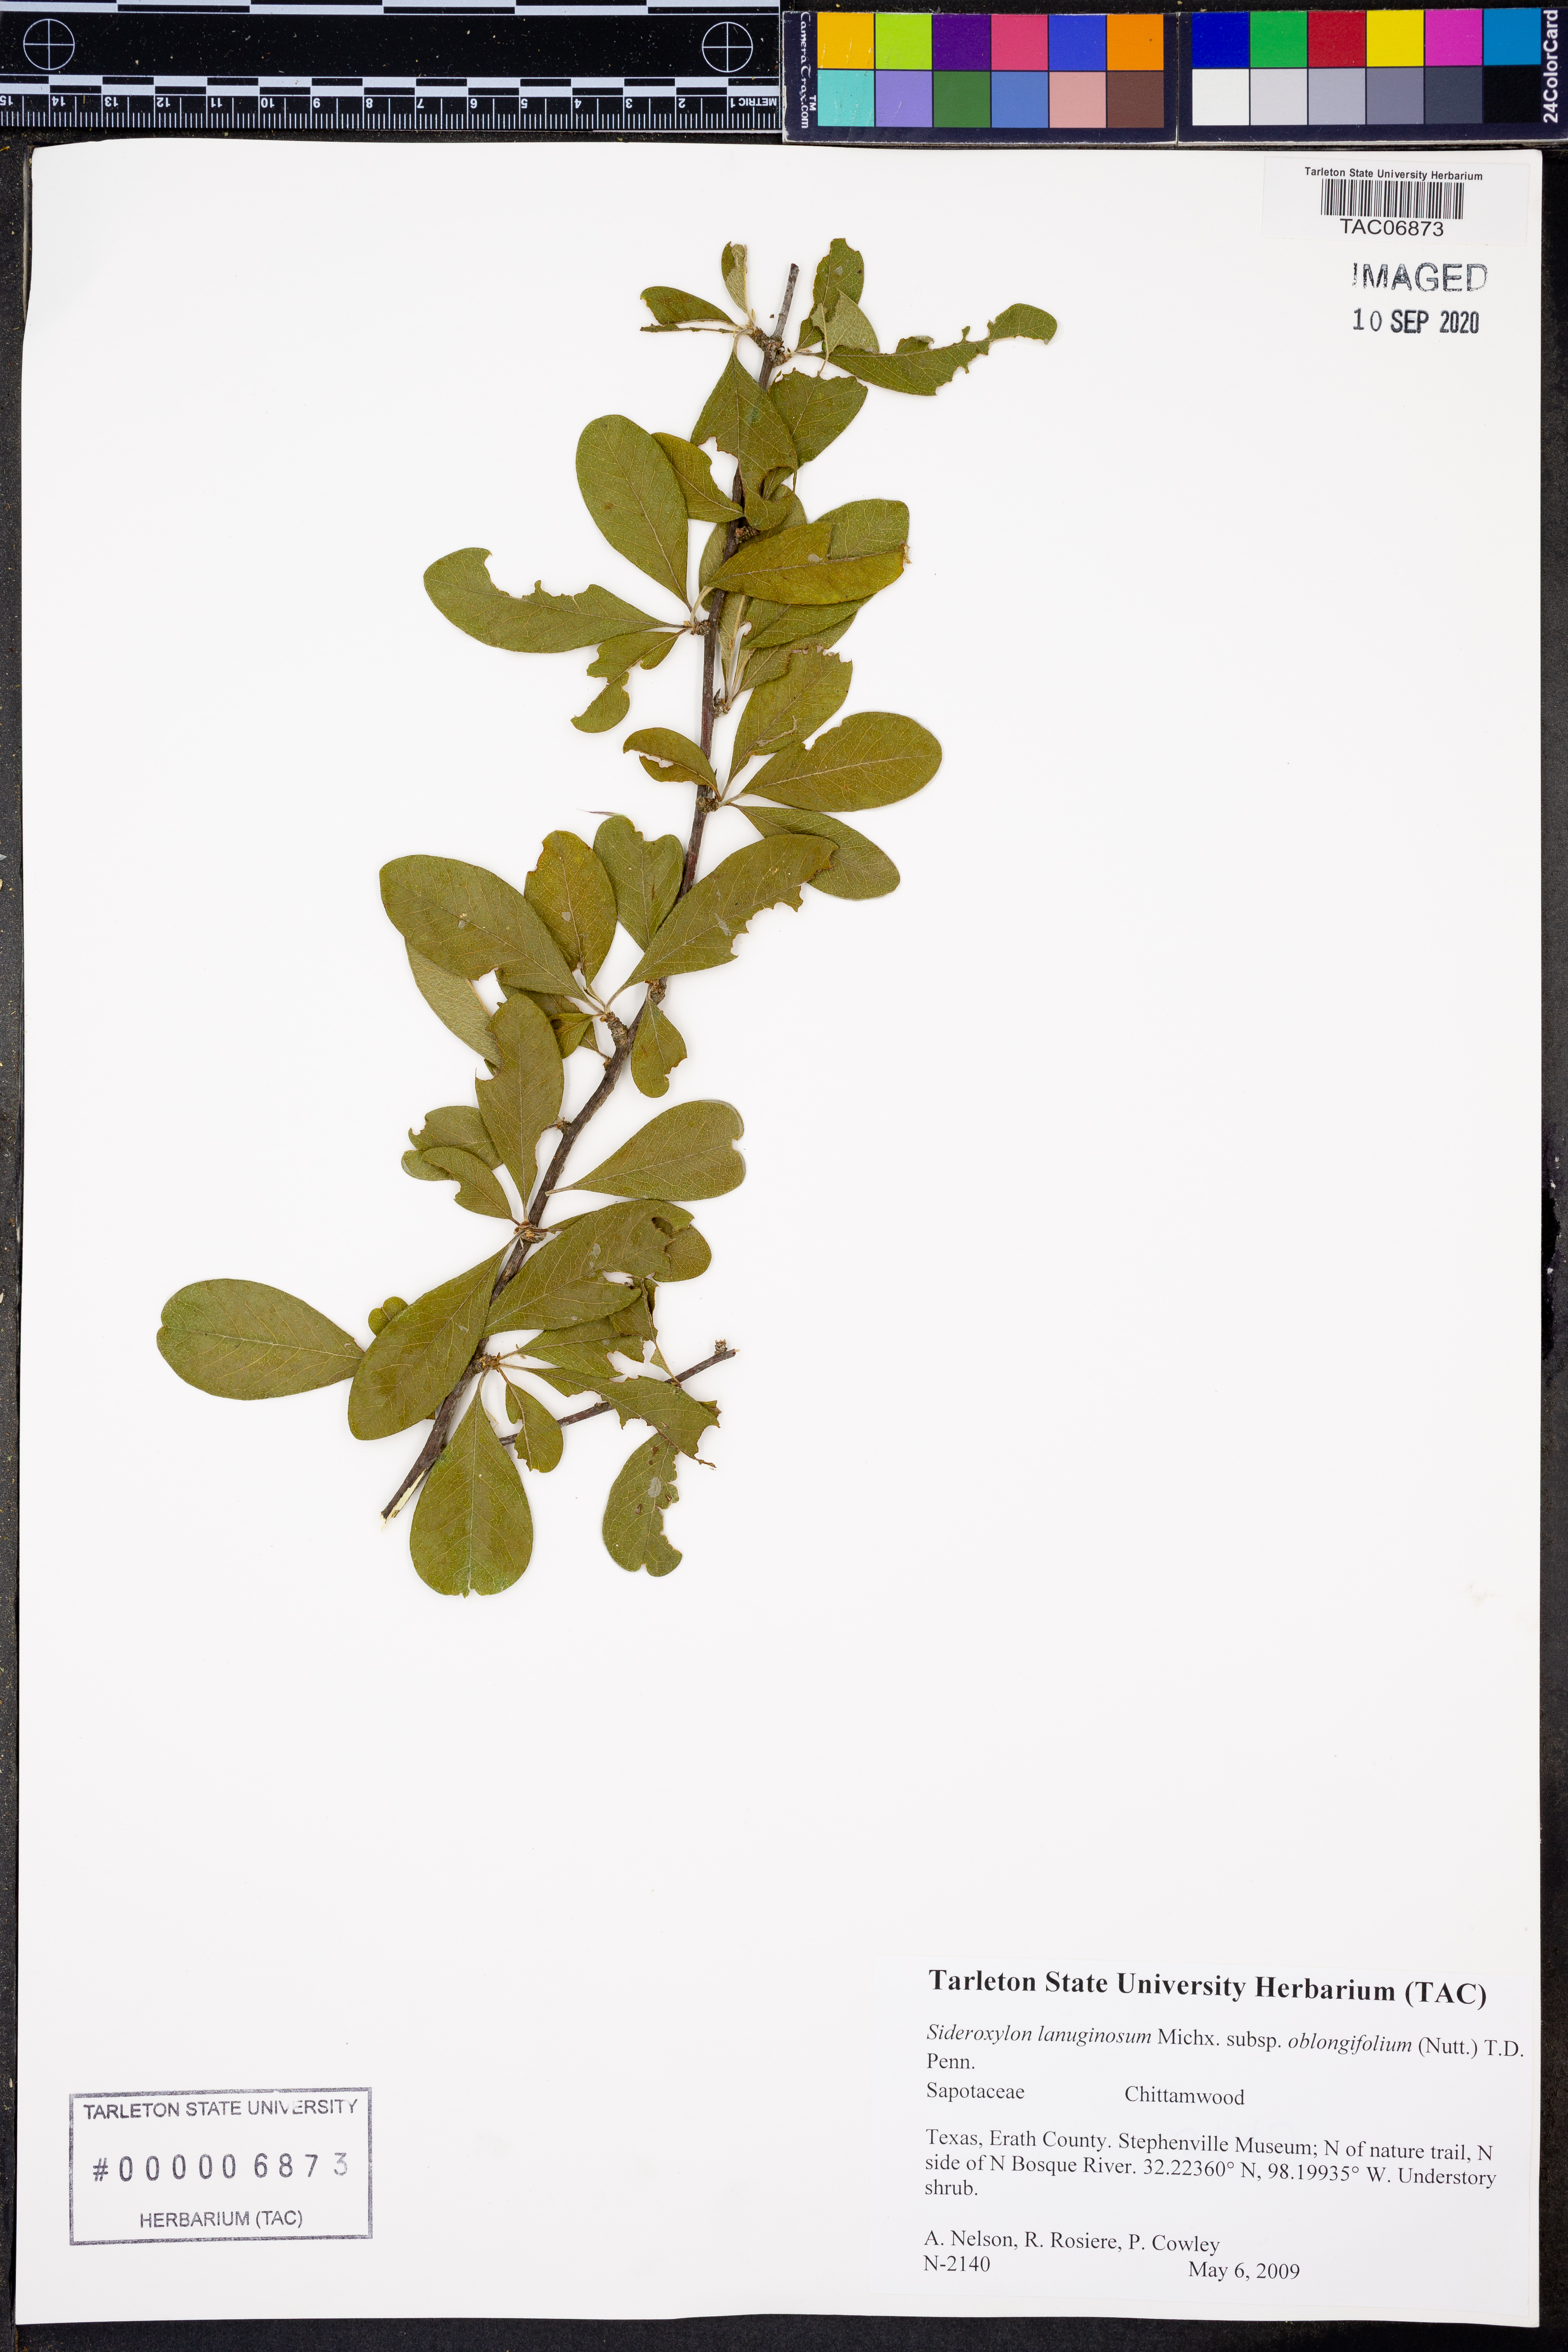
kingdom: Plantae
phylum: Tracheophyta
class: Magnoliopsida
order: Ericales
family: Sapotaceae
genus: Sideroxylon
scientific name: Sideroxylon lanuginosum
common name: Chittamwood
